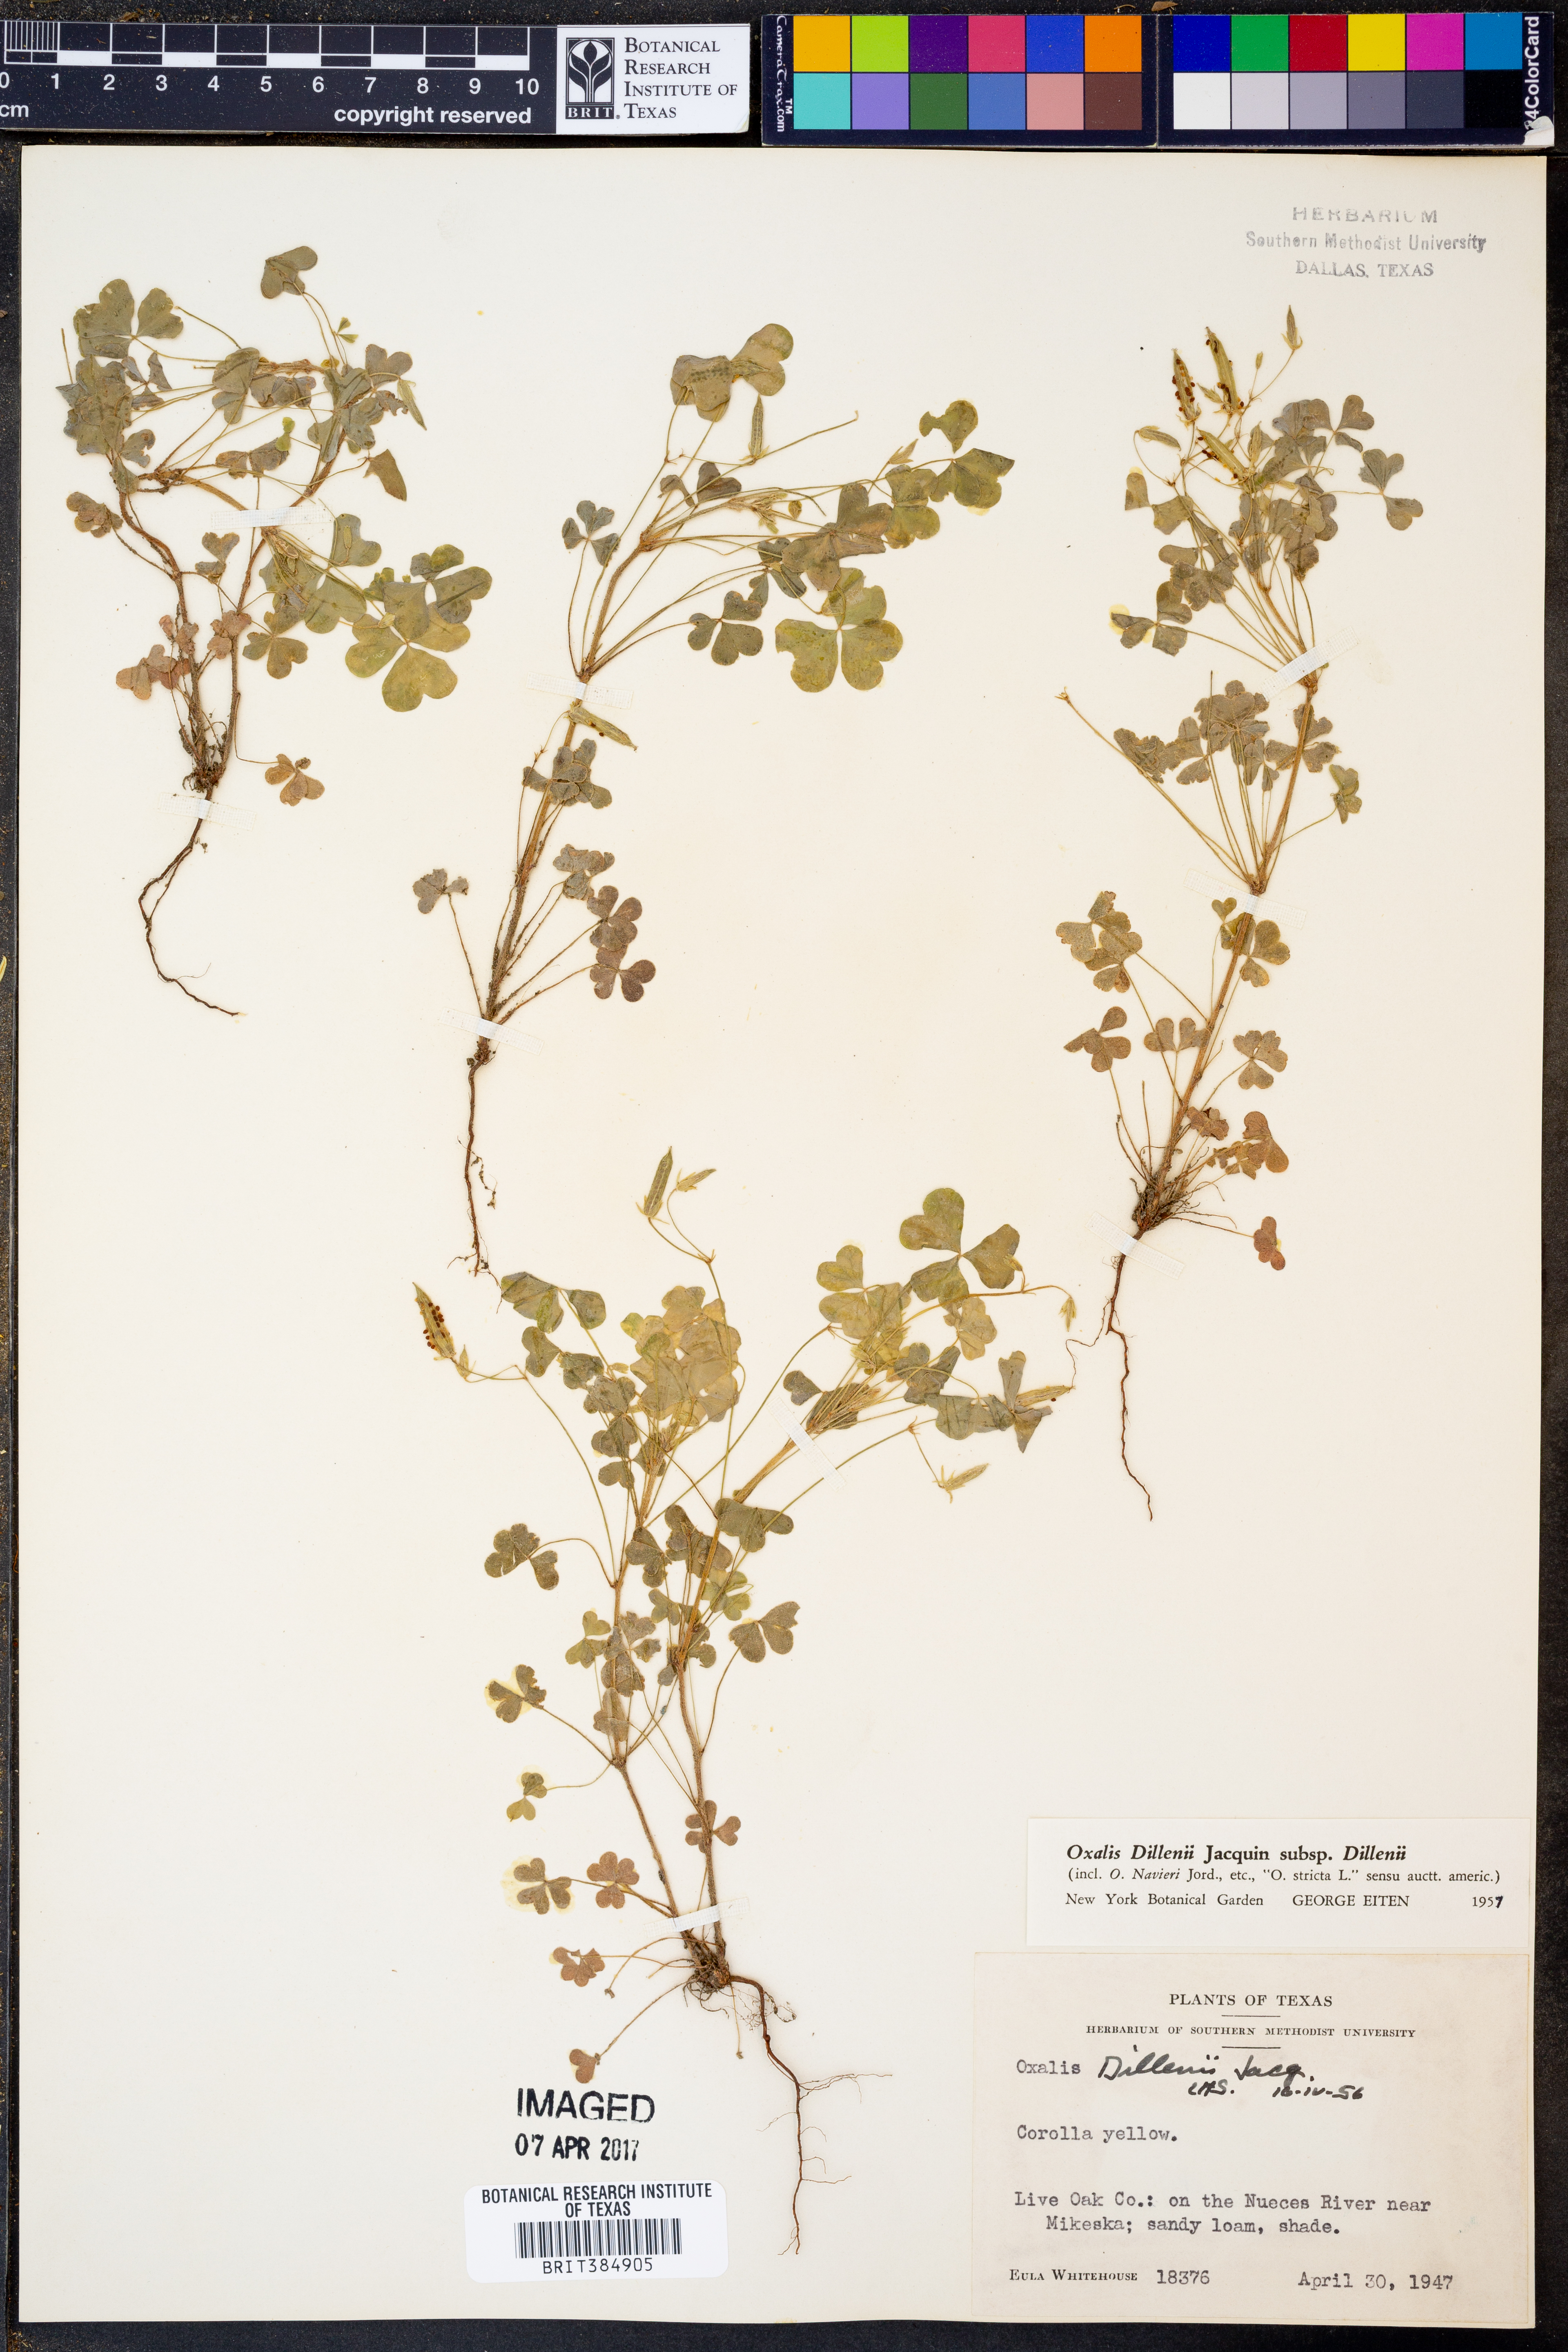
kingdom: Plantae
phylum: Tracheophyta
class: Magnoliopsida
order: Oxalidales
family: Oxalidaceae
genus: Oxalis
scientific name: Oxalis dillenii
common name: Sussex yellow-sorrel
